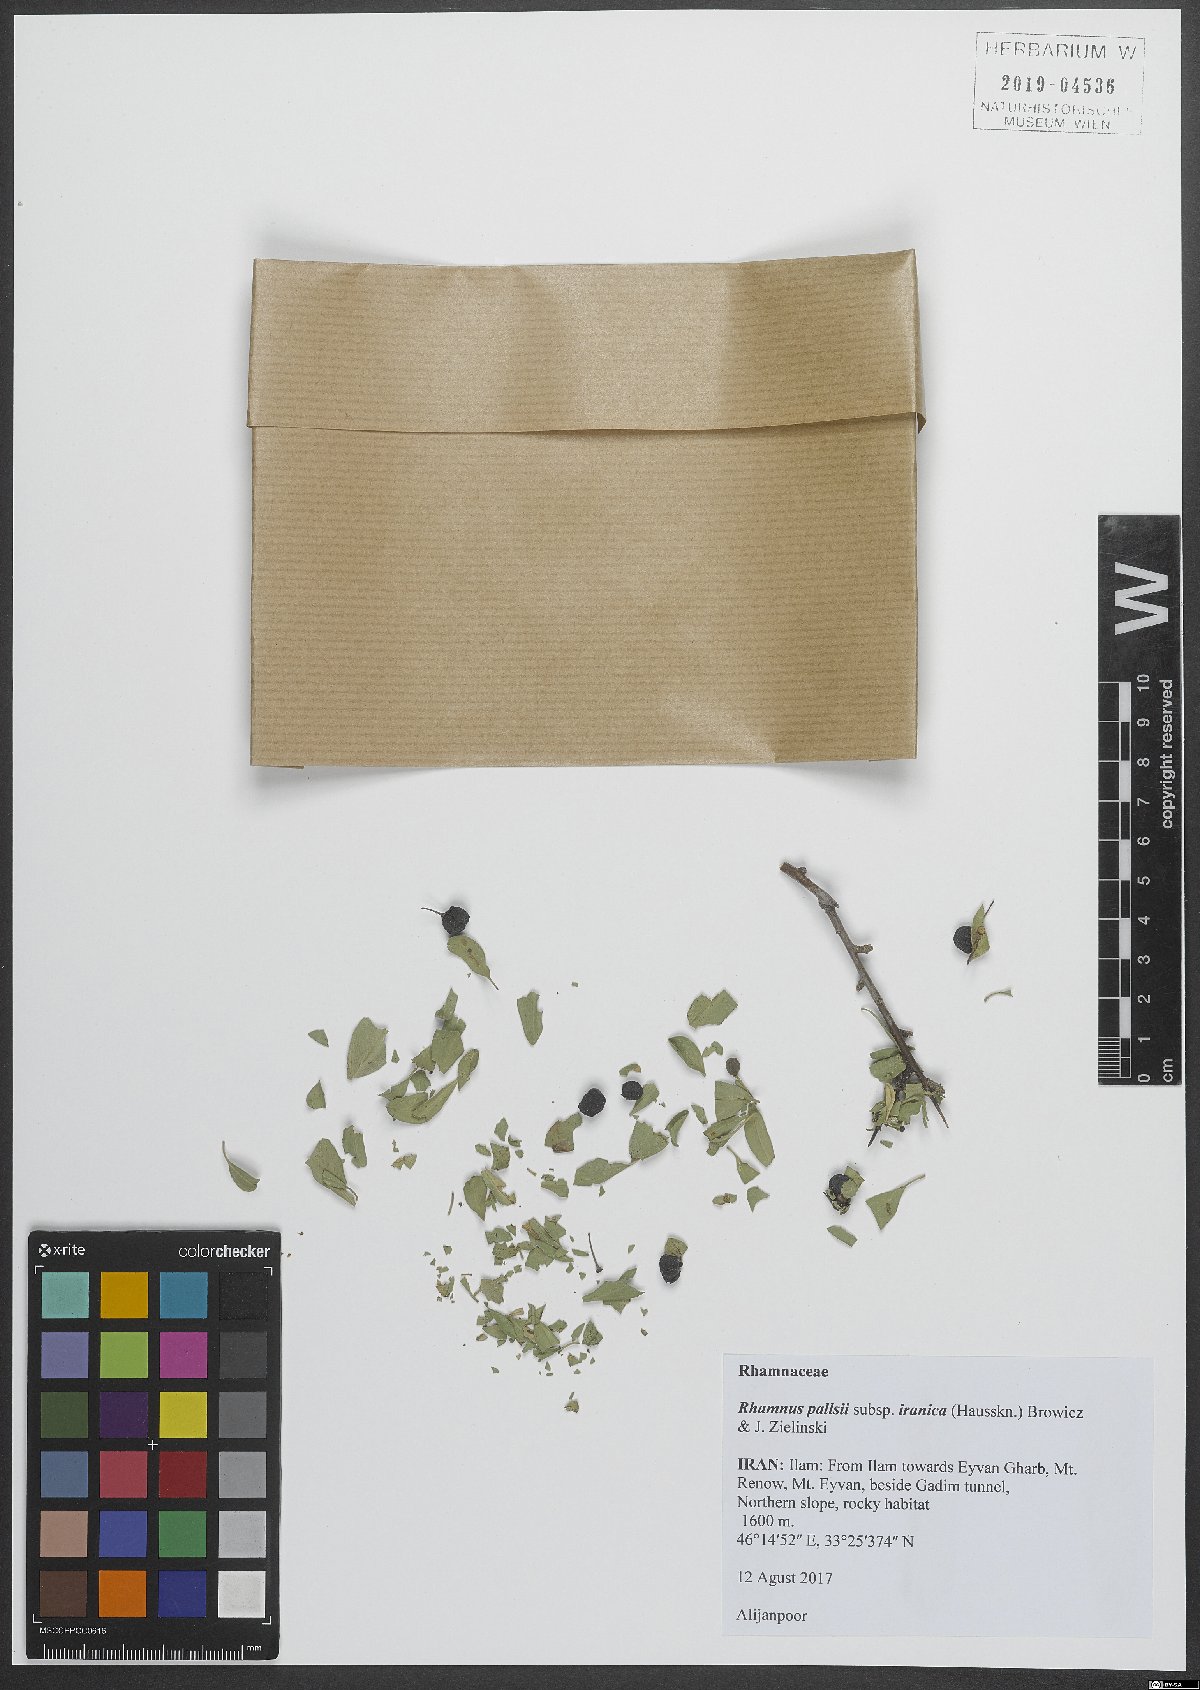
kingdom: Plantae
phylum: Tracheophyta
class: Magnoliopsida
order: Rosales
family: Rhamnaceae
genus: Rhamnus
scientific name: Rhamnus erythroxyloides
